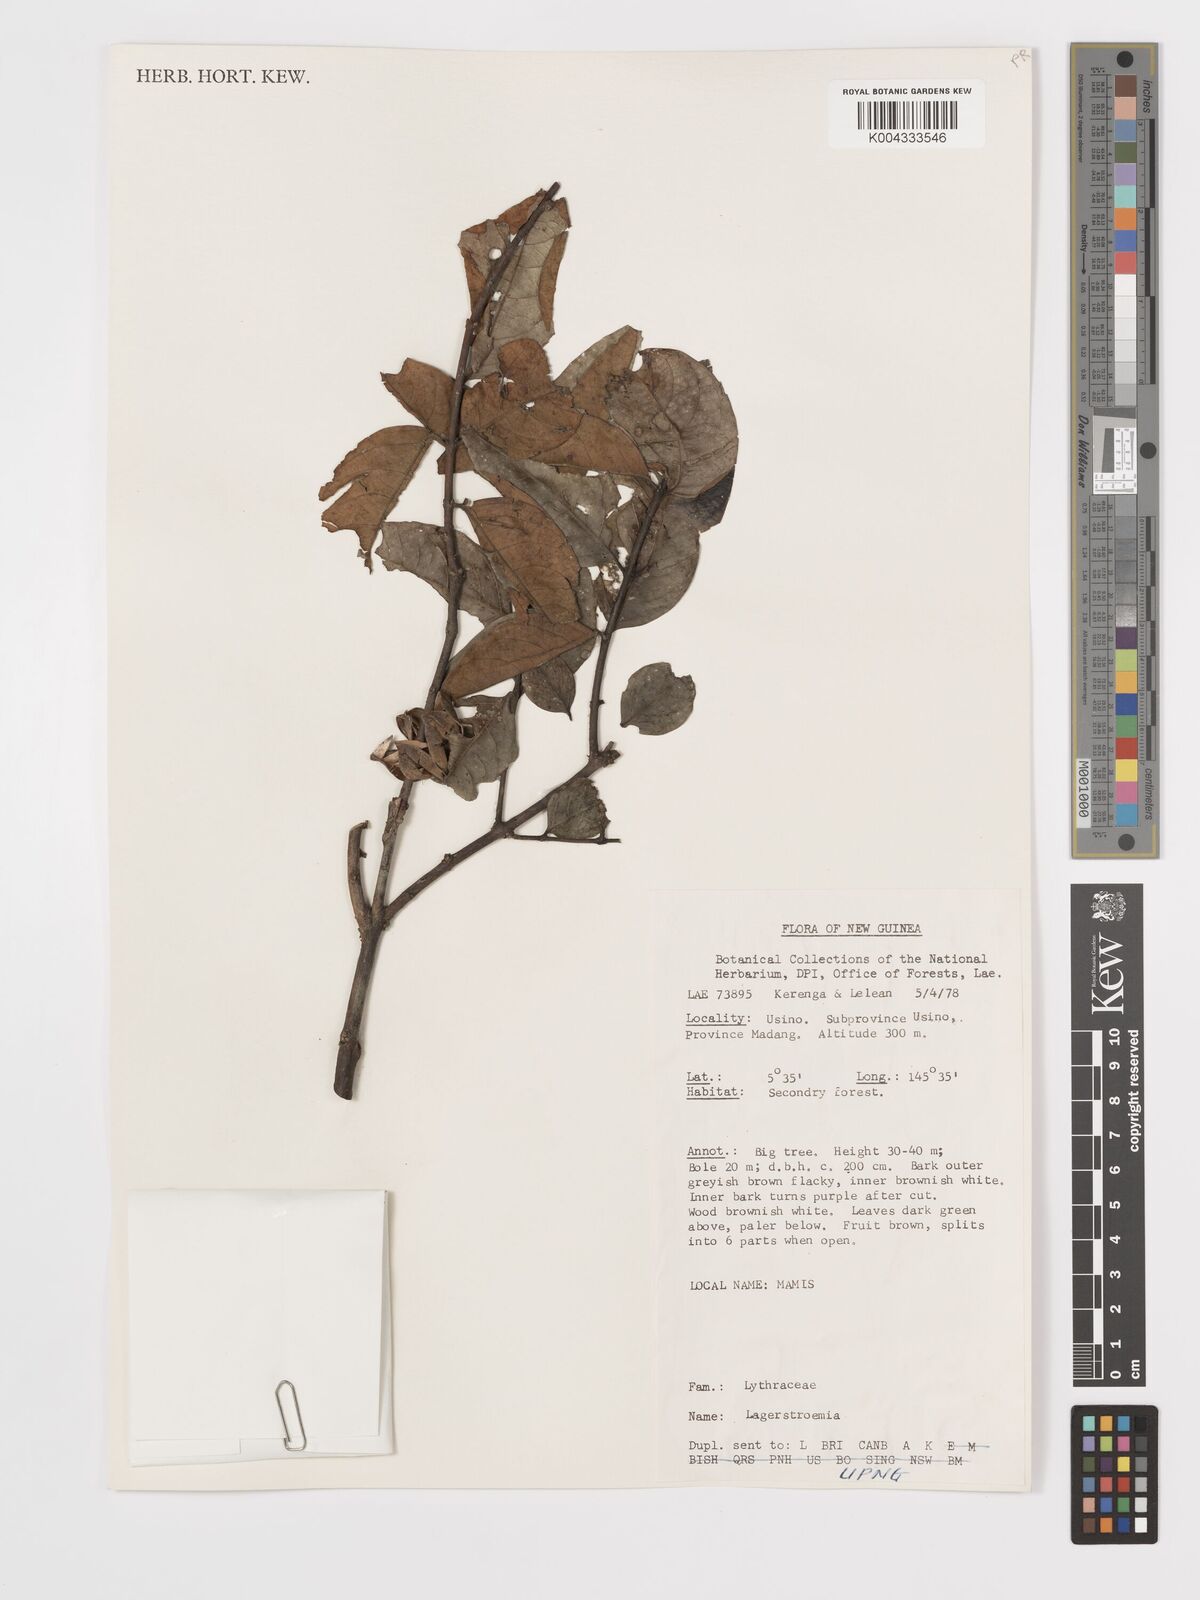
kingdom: Plantae
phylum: Tracheophyta
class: Magnoliopsida
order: Myrtales
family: Lythraceae
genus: Lagerstroemia
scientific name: Lagerstroemia
